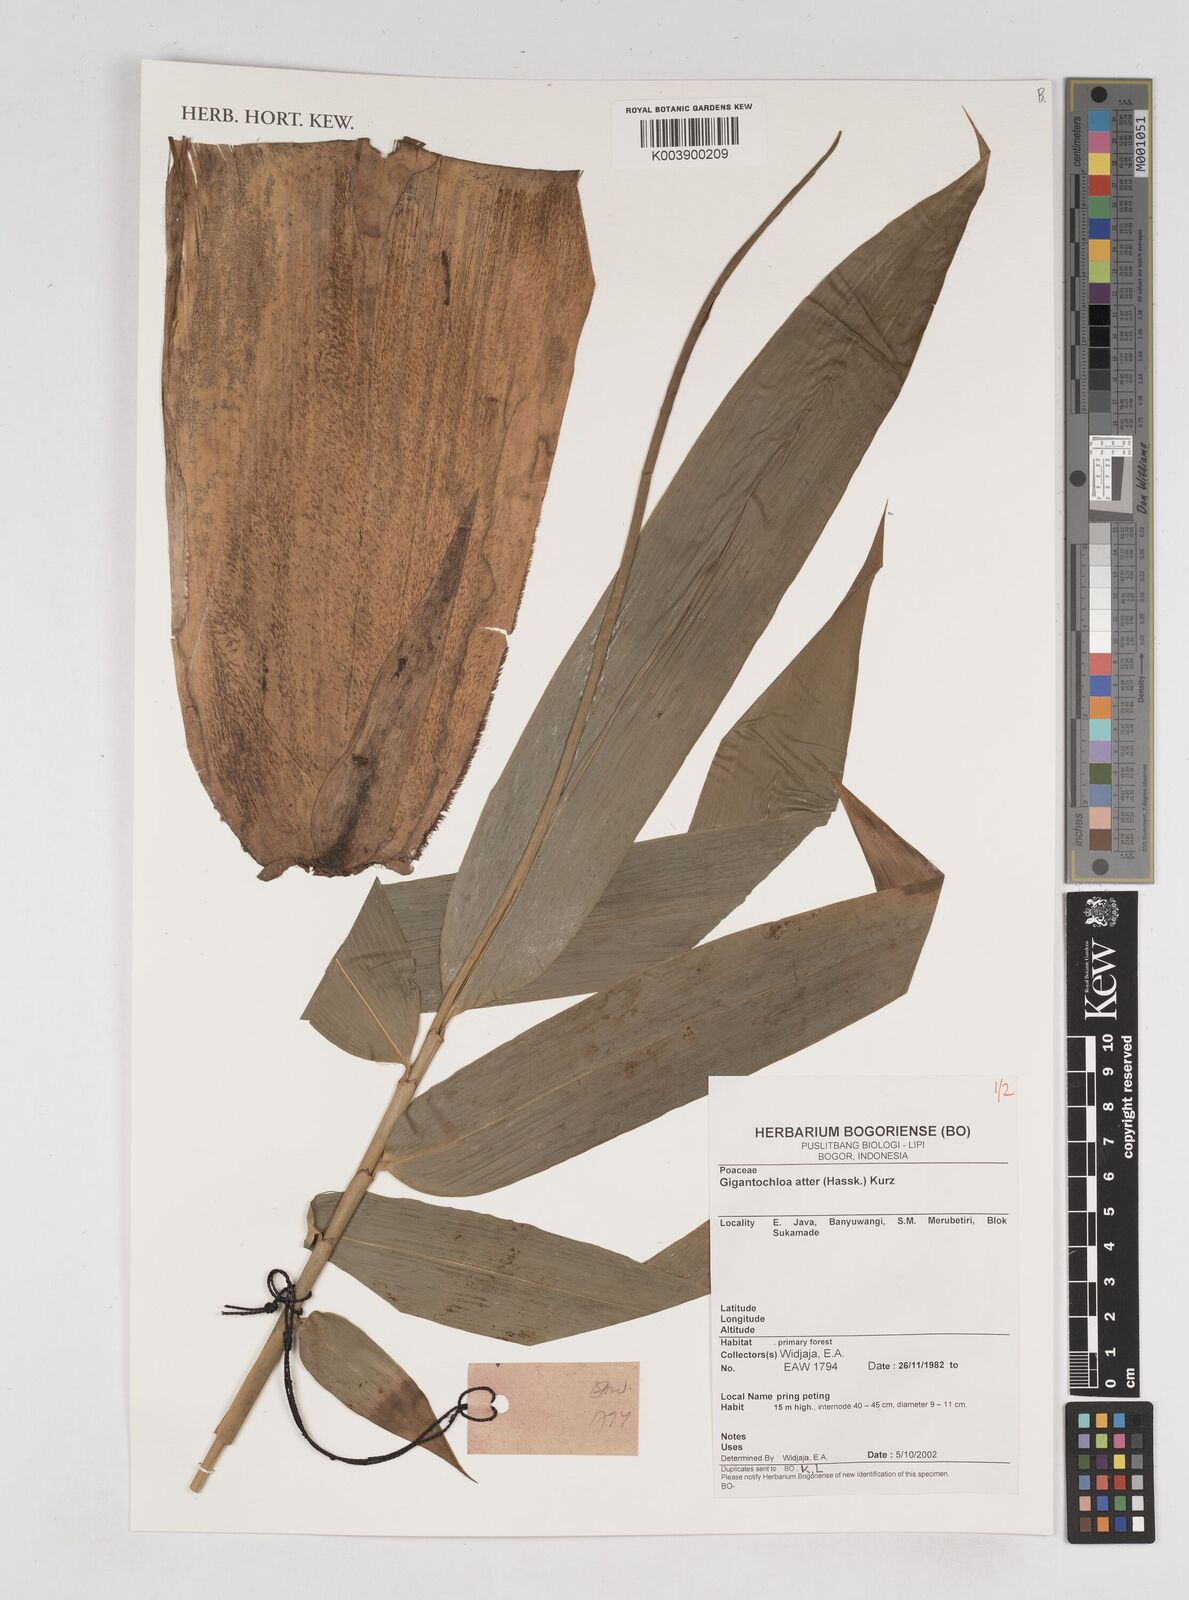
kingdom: Plantae
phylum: Tracheophyta
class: Liliopsida
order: Poales
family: Poaceae
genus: Gigantochloa
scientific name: Gigantochloa atter
